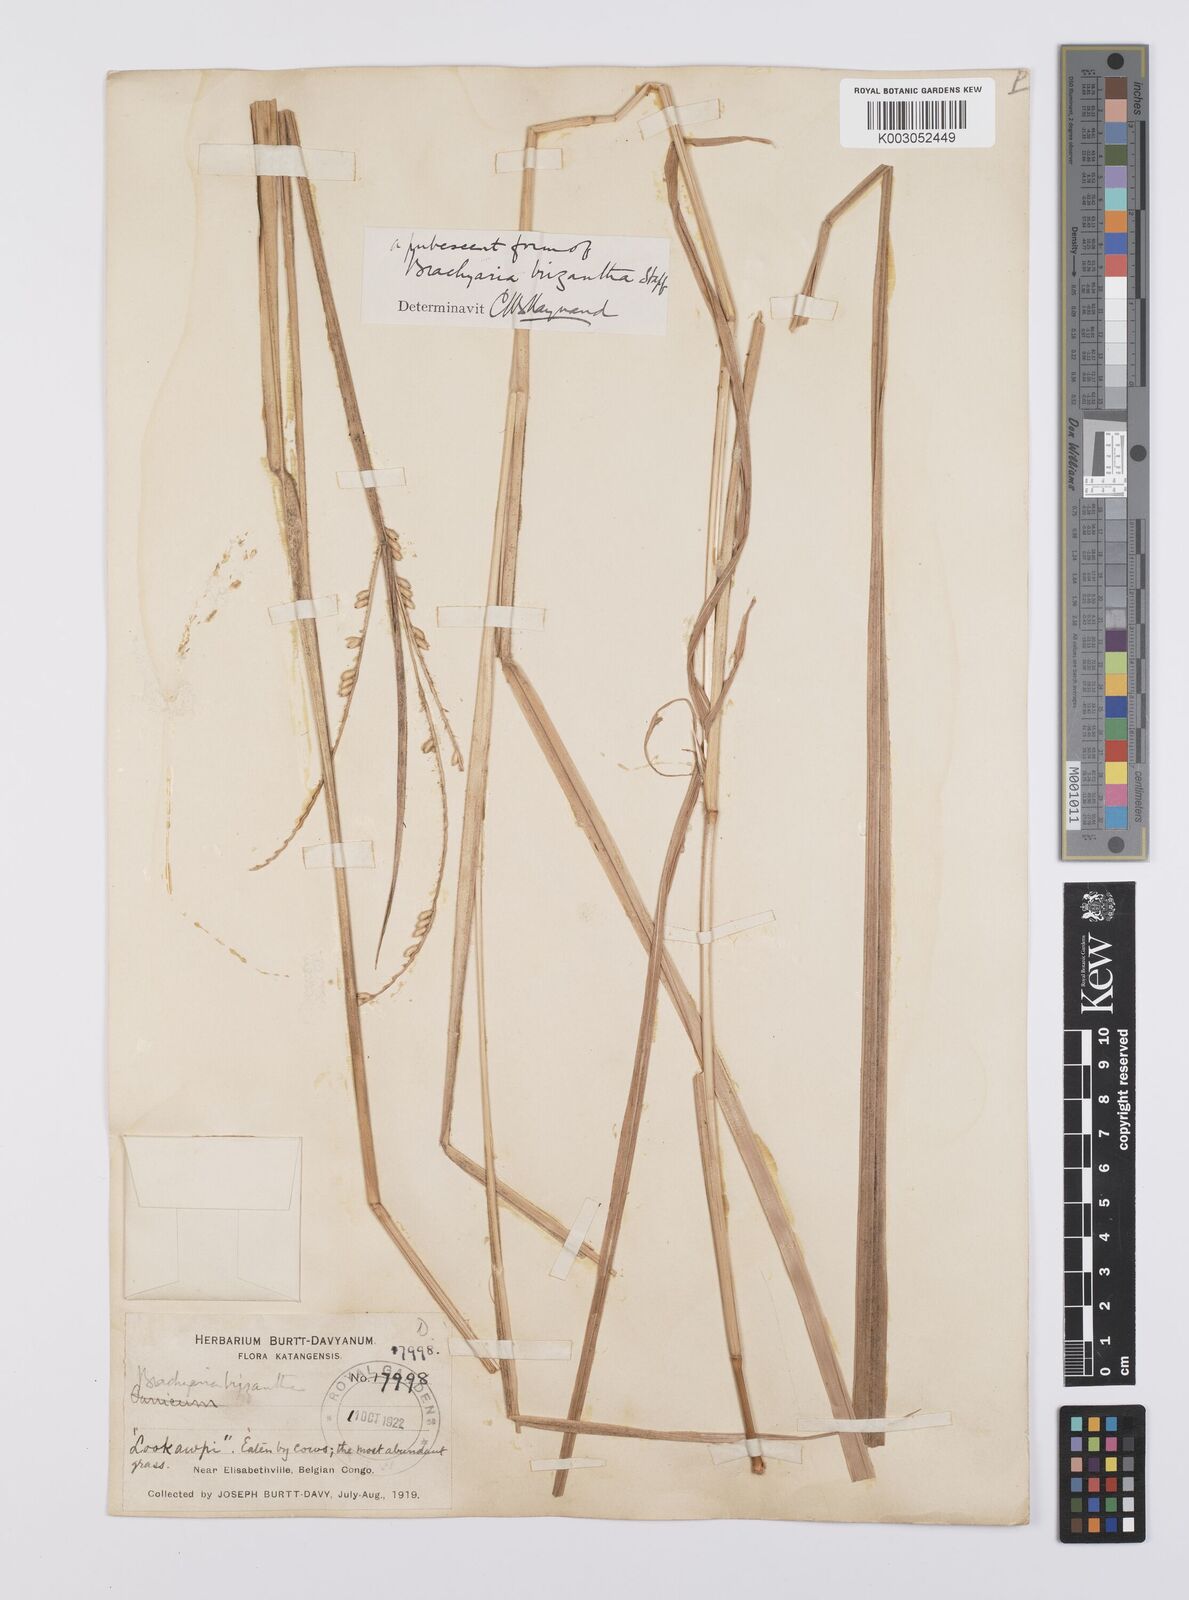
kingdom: Plantae
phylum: Tracheophyta
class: Liliopsida
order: Poales
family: Poaceae
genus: Urochloa
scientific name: Urochloa brizantha
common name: Palisade signalgrass
